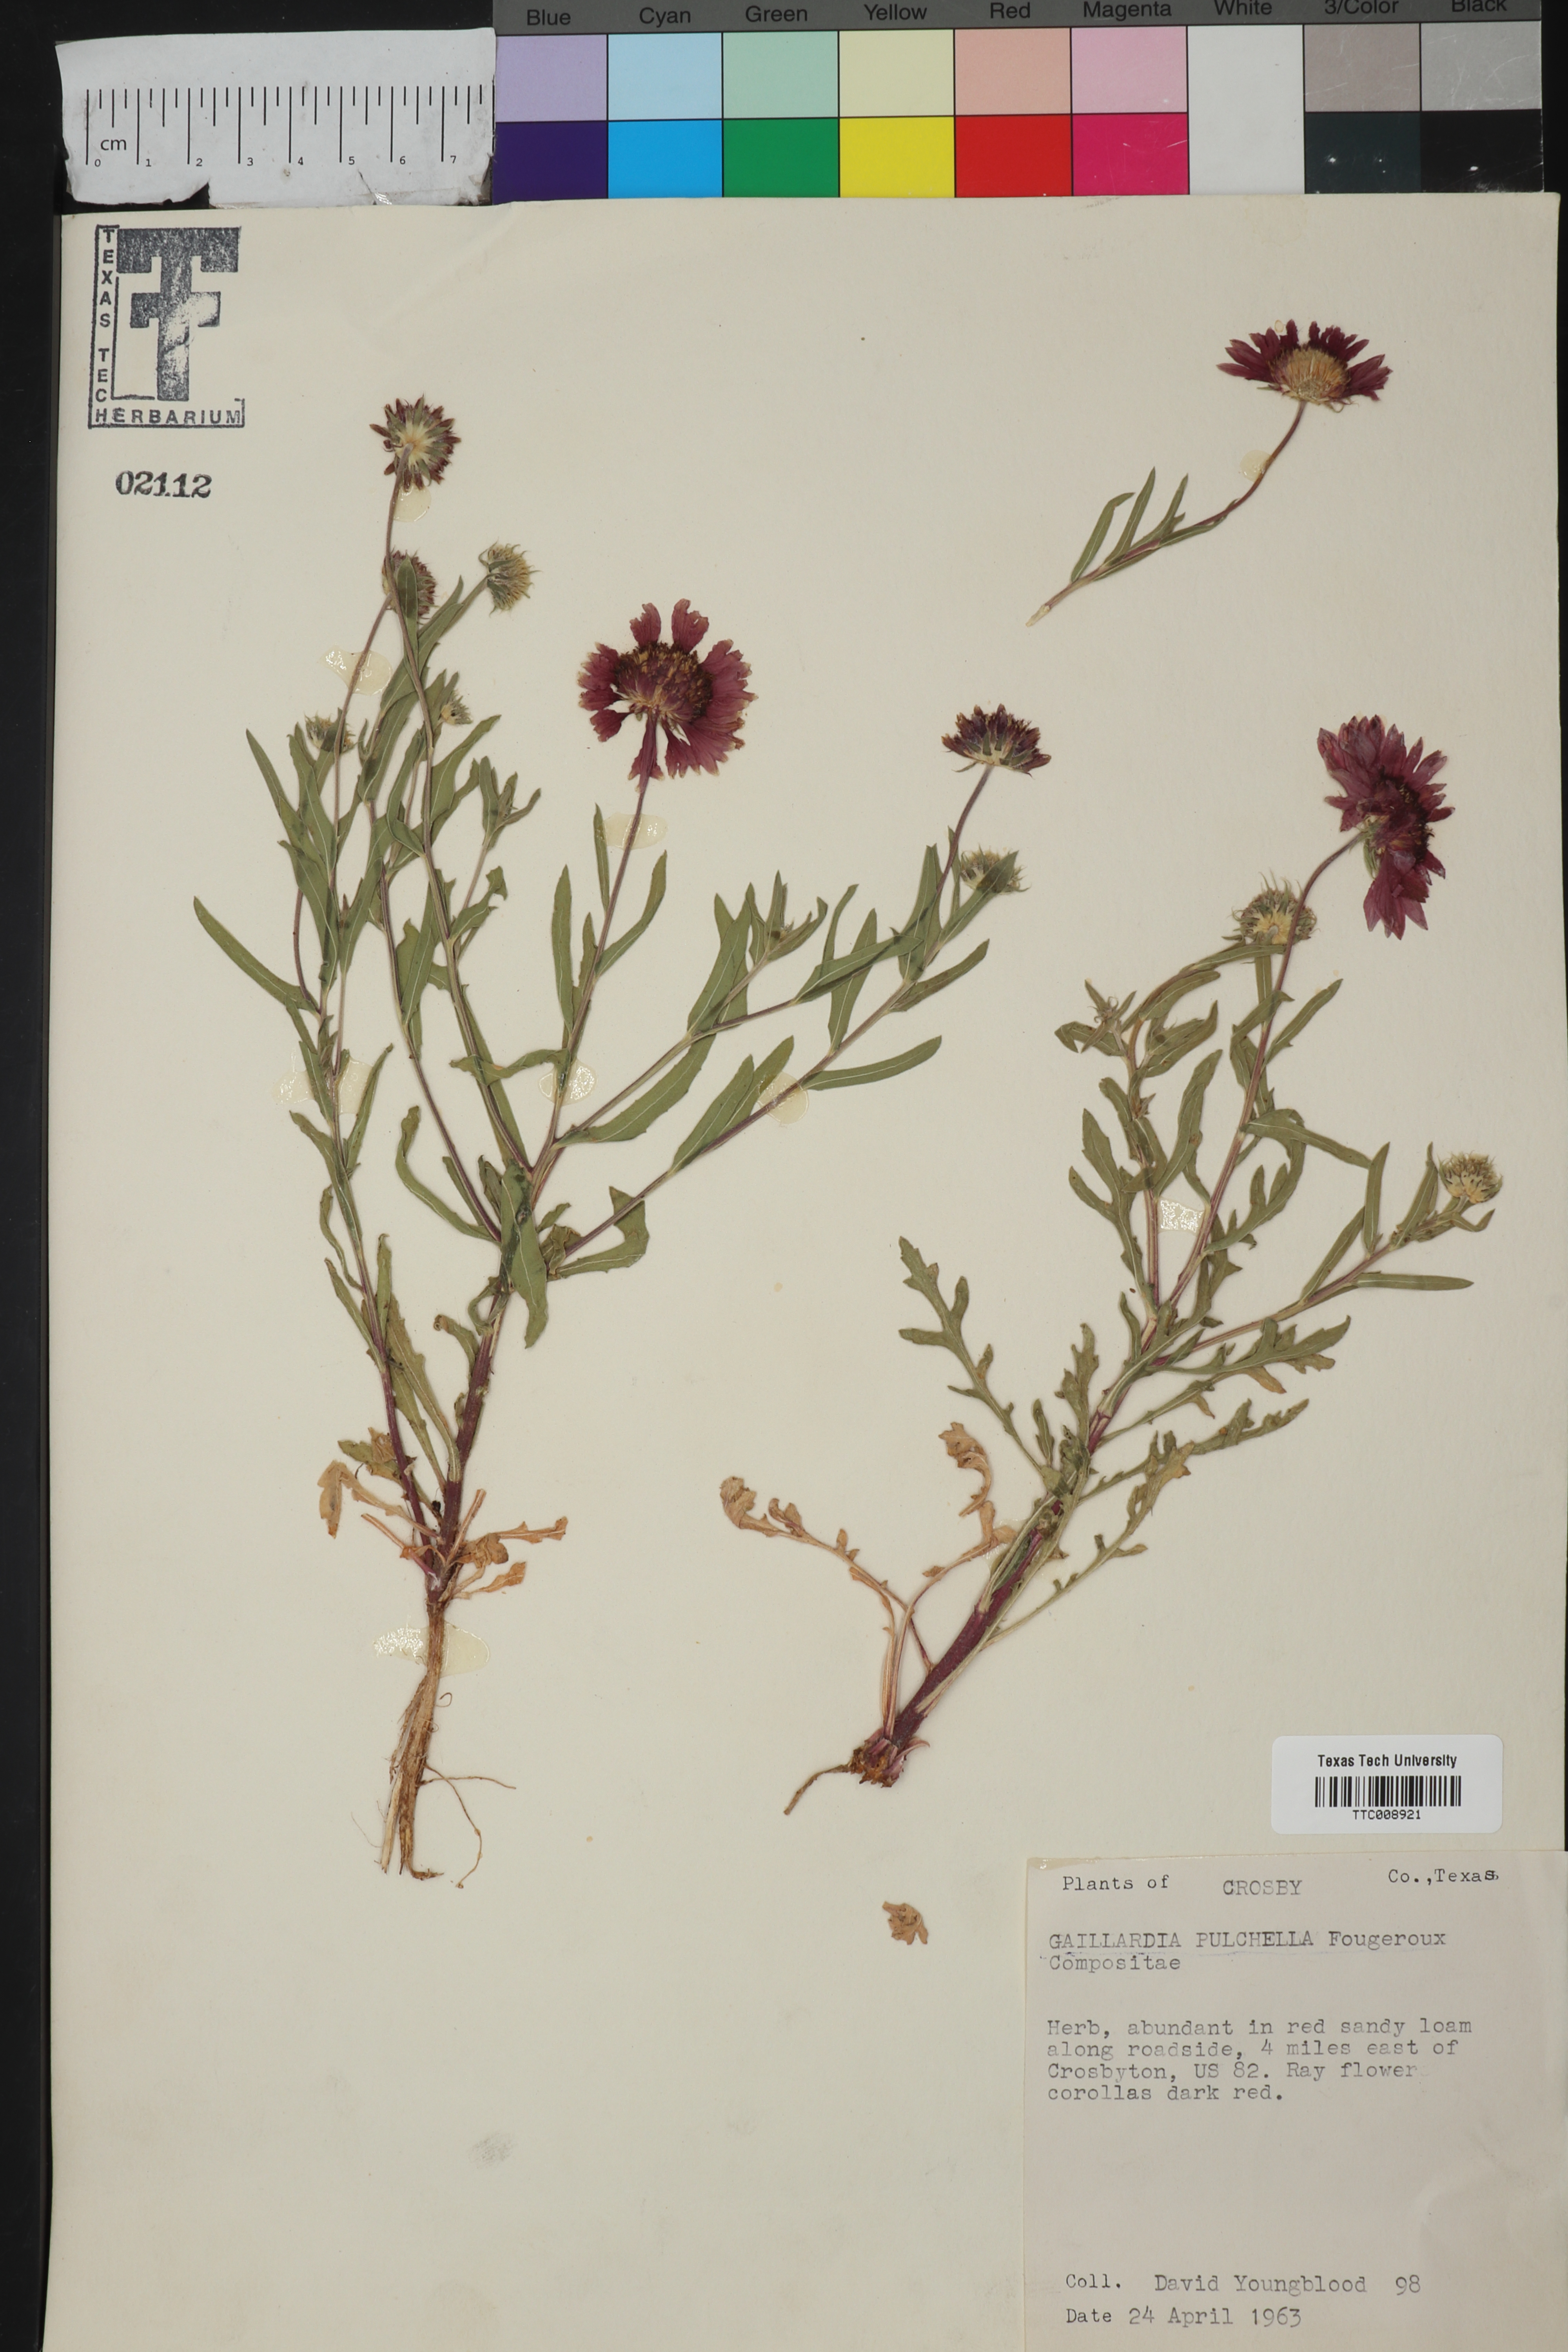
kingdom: Plantae
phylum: Tracheophyta
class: Magnoliopsida
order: Asterales
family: Asteraceae
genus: Gaillardia
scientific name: Gaillardia pulchella
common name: Firewheel
